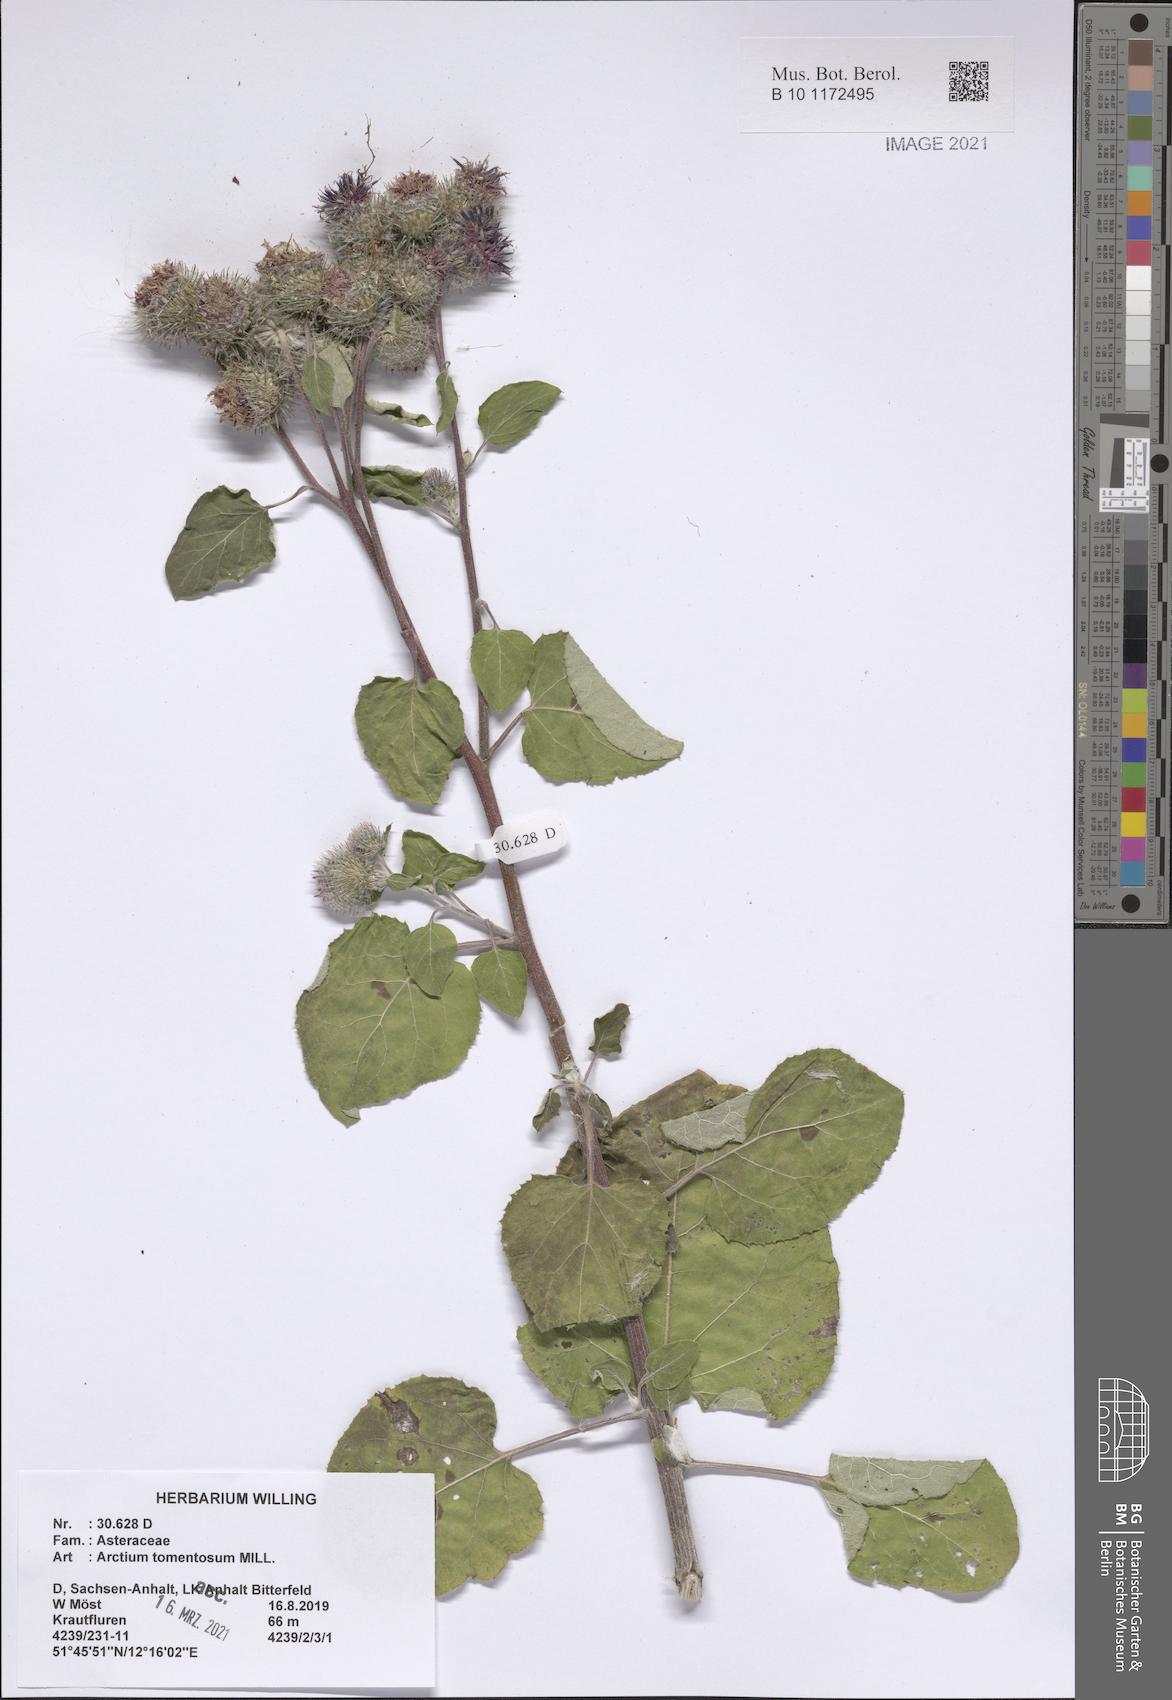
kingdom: Plantae
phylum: Tracheophyta
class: Magnoliopsida
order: Asterales
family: Asteraceae
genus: Arctium
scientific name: Arctium tomentosum
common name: Woolly burdock
